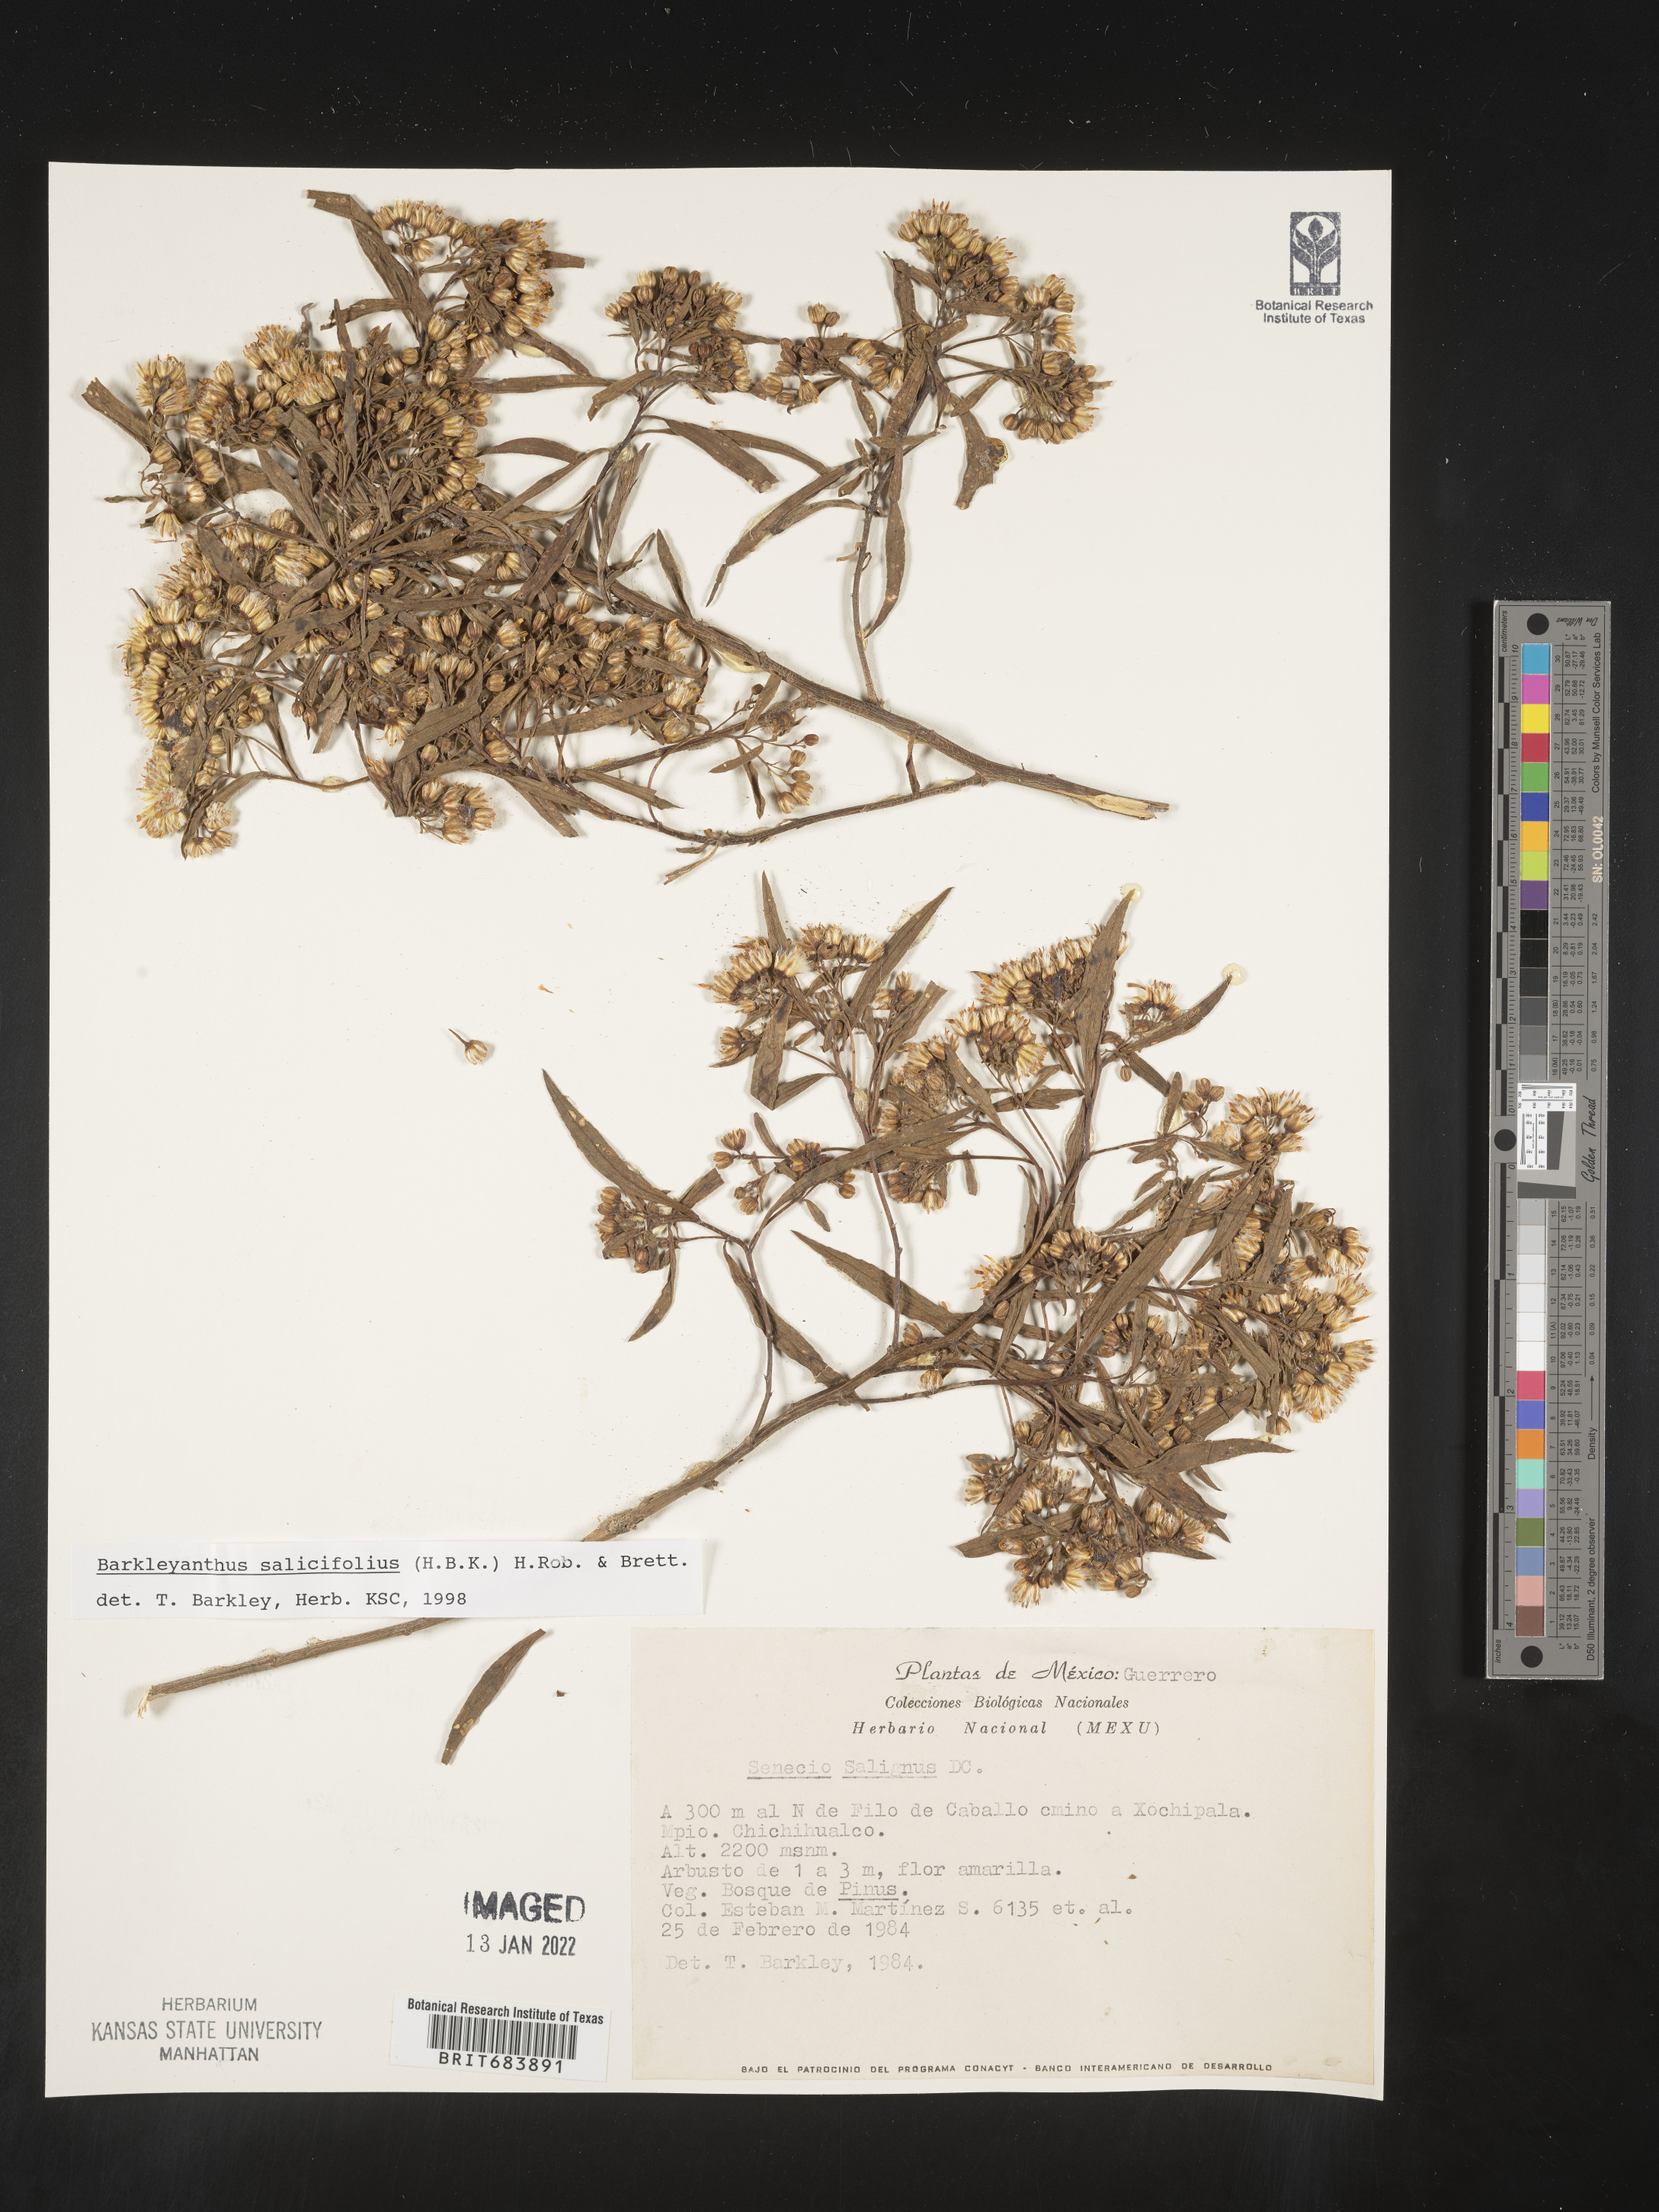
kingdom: Plantae
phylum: Tracheophyta
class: Magnoliopsida
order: Asterales
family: Asteraceae
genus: Barkleyanthus
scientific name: Barkleyanthus
